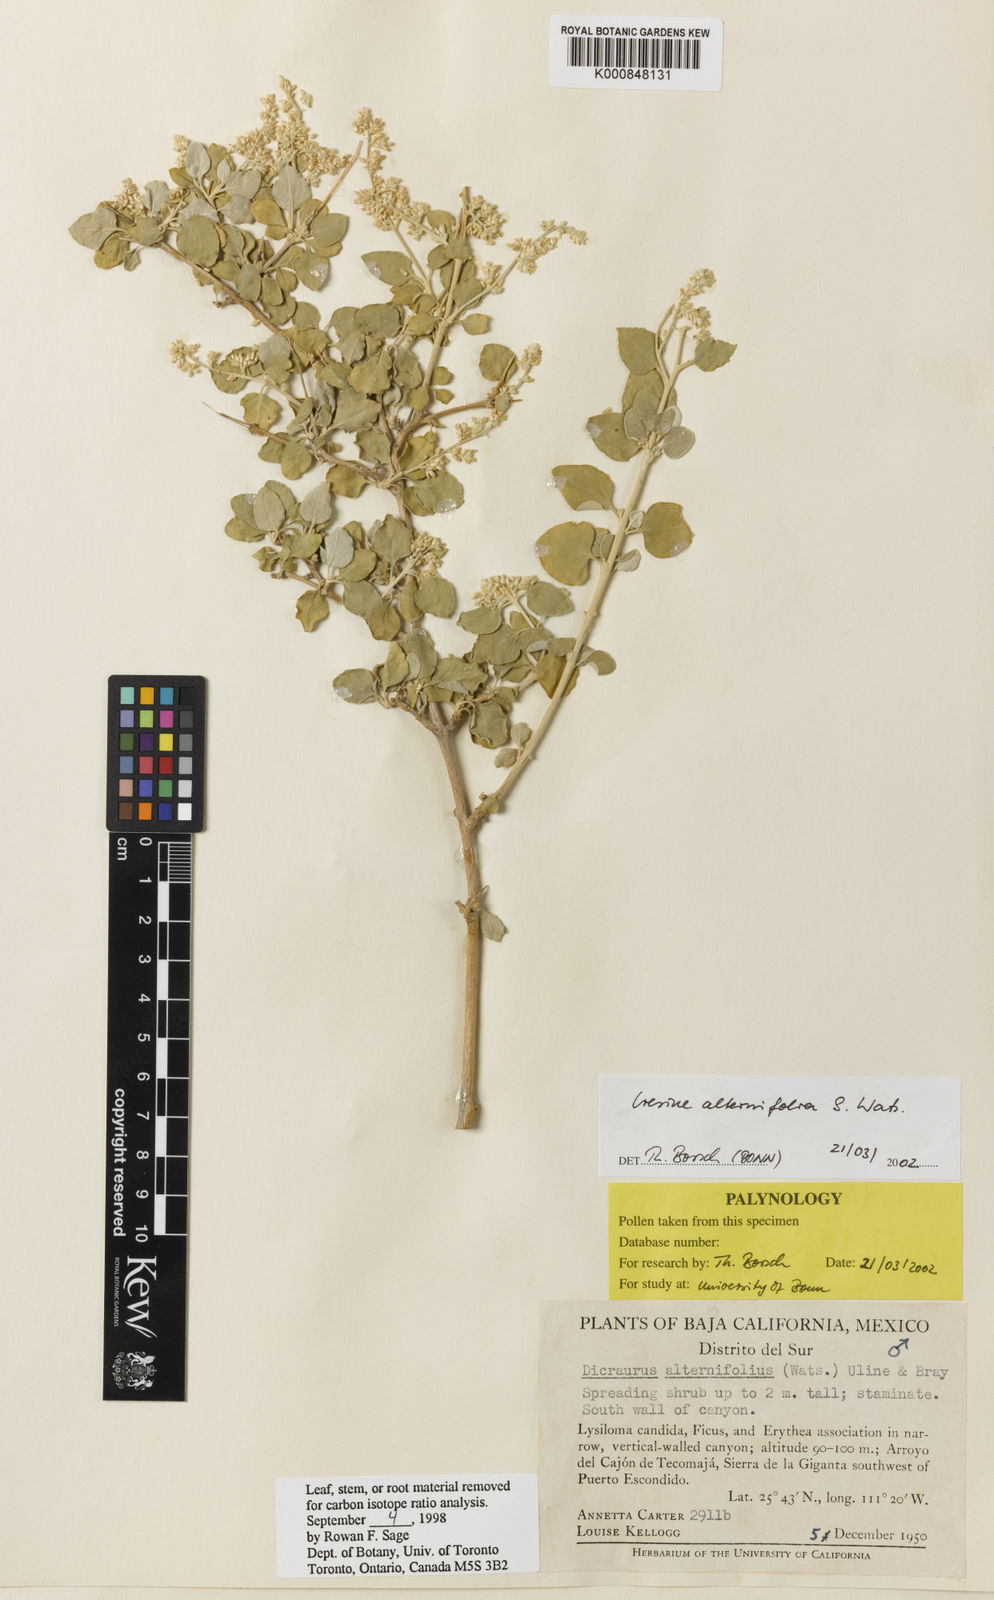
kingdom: Plantae
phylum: Tracheophyta
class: Magnoliopsida
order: Caryophyllales
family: Amaranthaceae
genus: Iresine
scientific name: Iresine alternifolia
